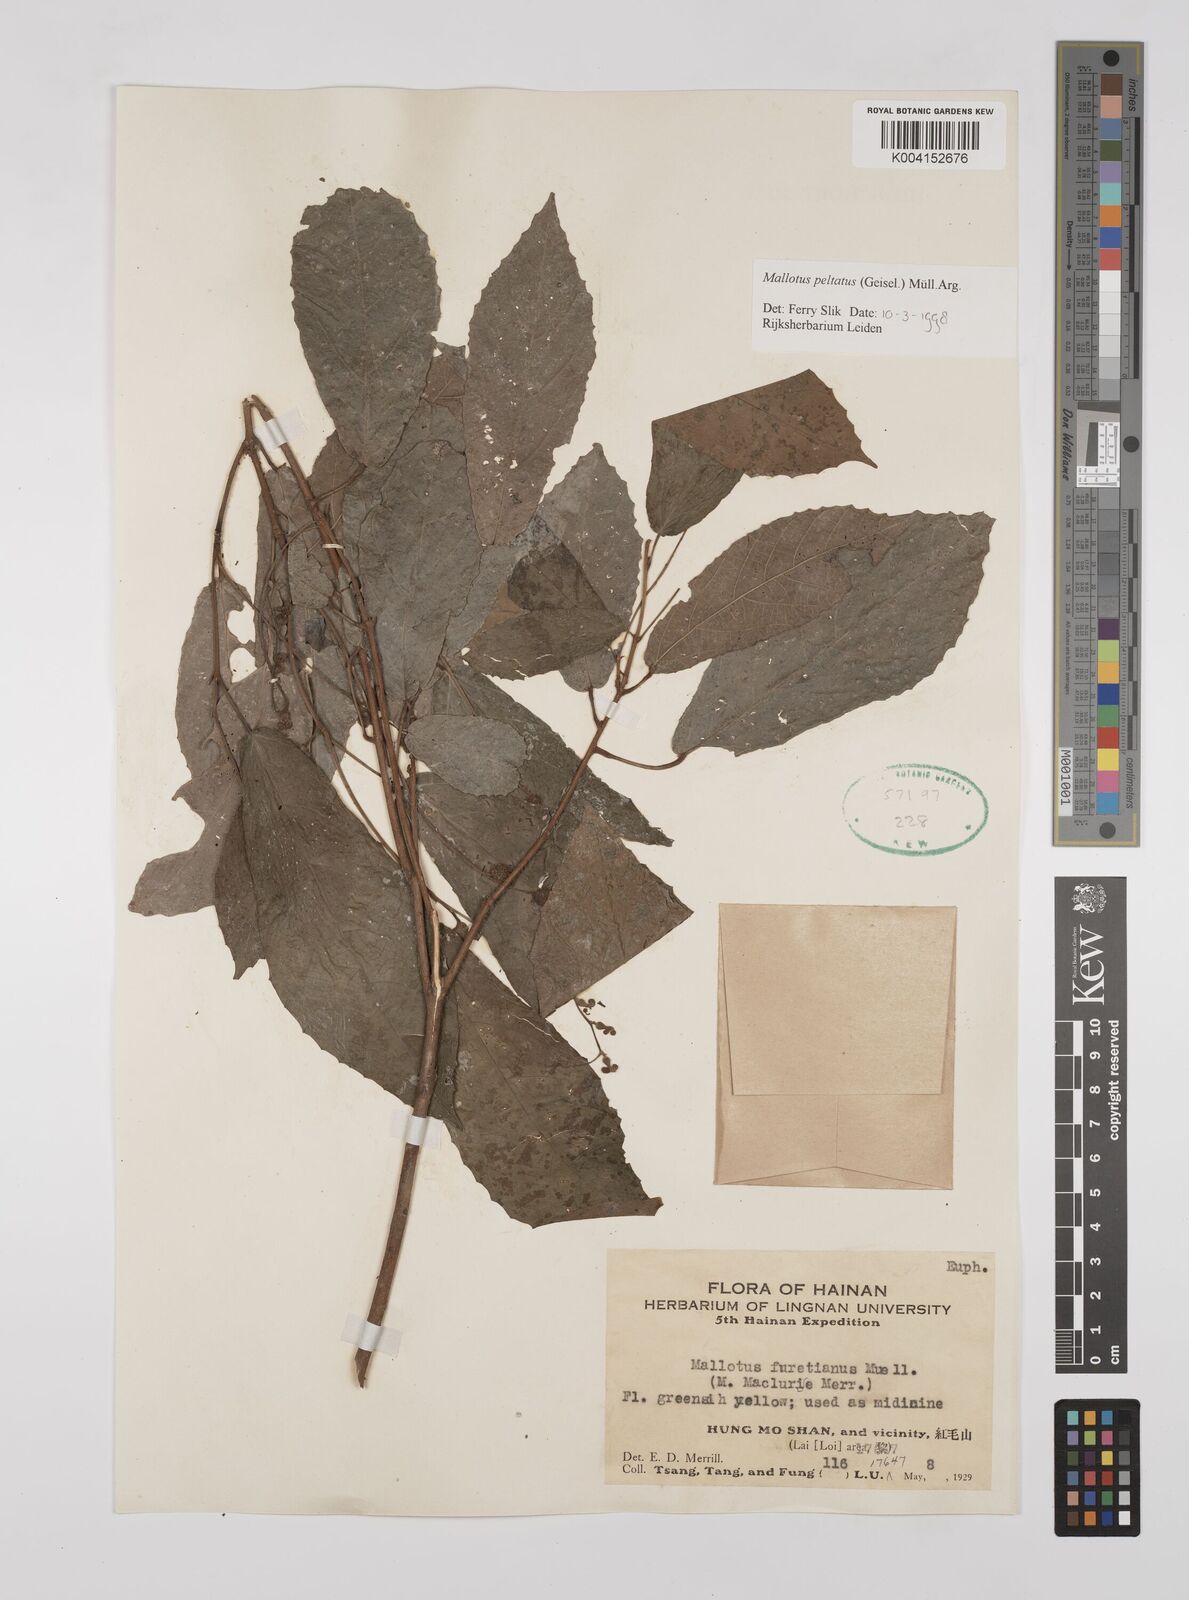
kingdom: Plantae
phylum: Tracheophyta
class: Magnoliopsida
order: Malpighiales
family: Euphorbiaceae
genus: Mallotus
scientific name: Mallotus peltatus
